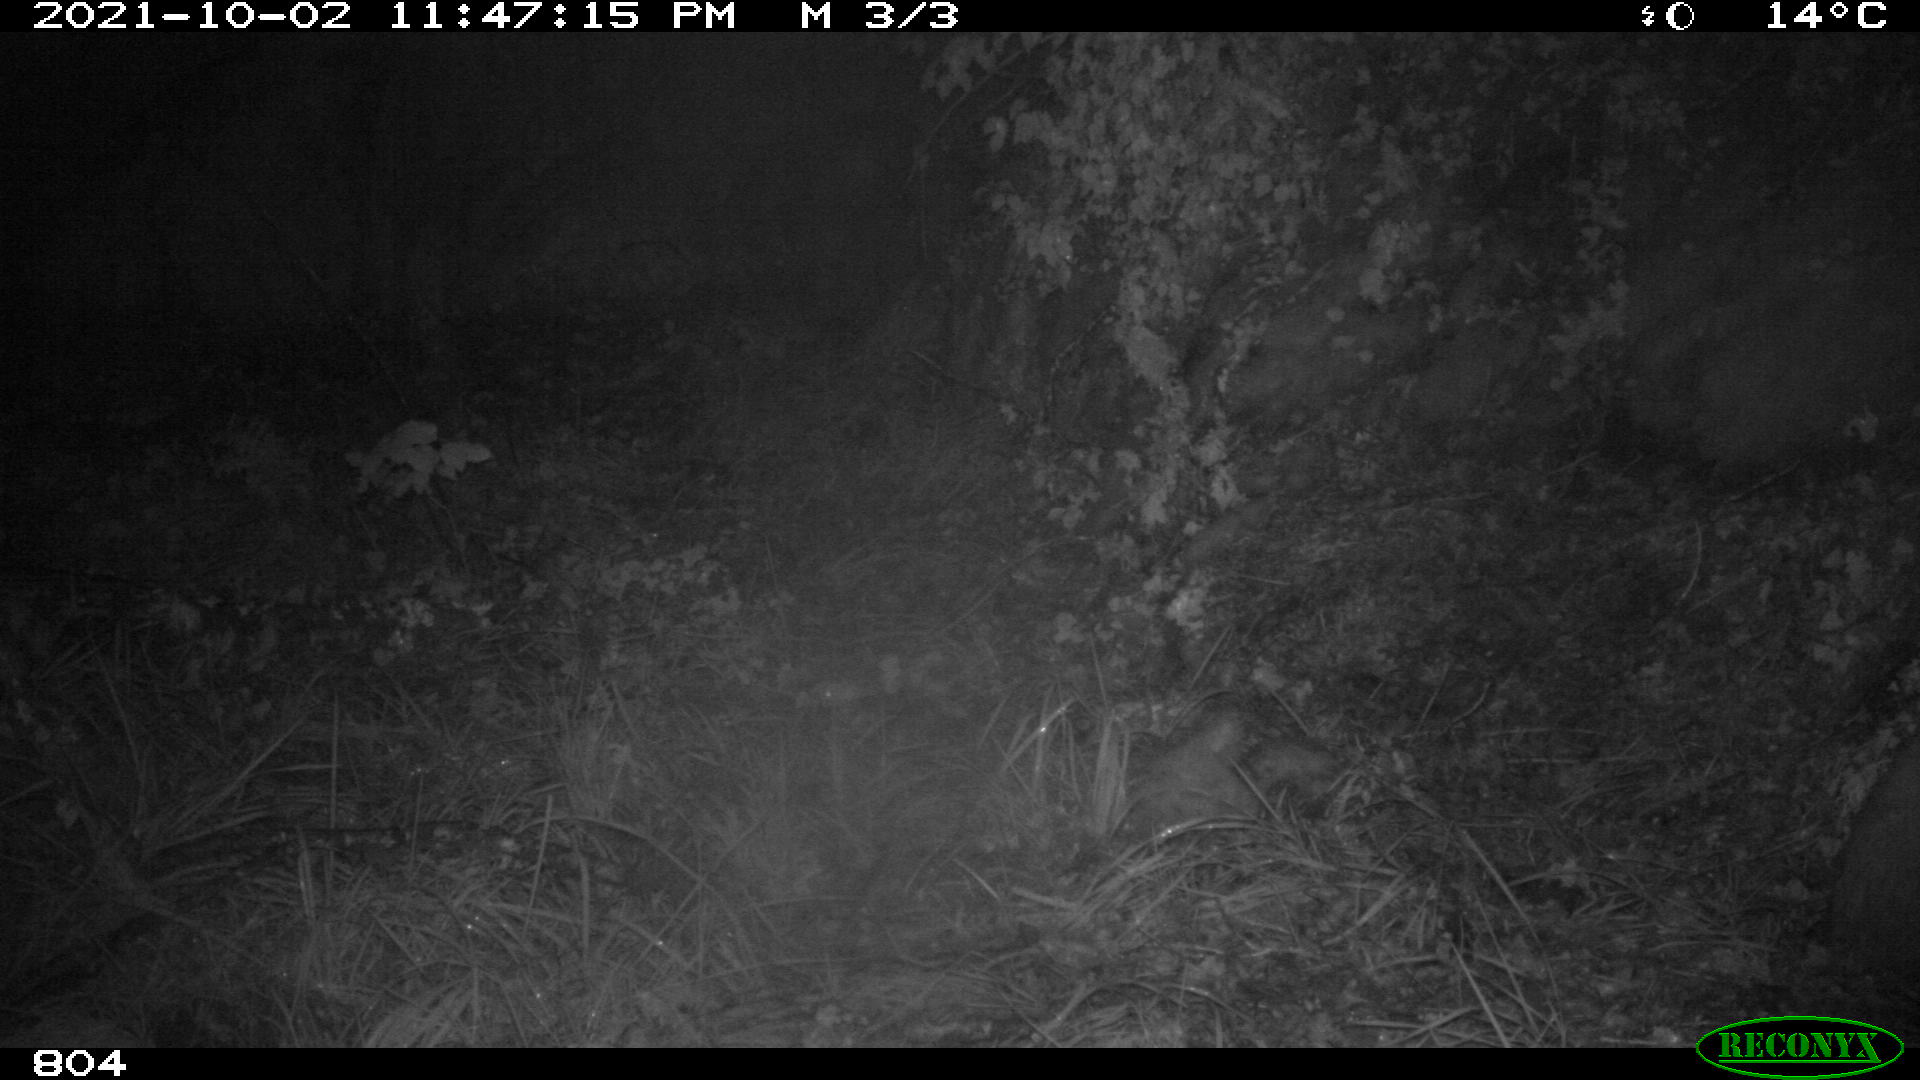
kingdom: Animalia
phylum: Chordata
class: Mammalia
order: Artiodactyla
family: Suidae
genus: Sus
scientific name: Sus scrofa
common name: Wild boar
